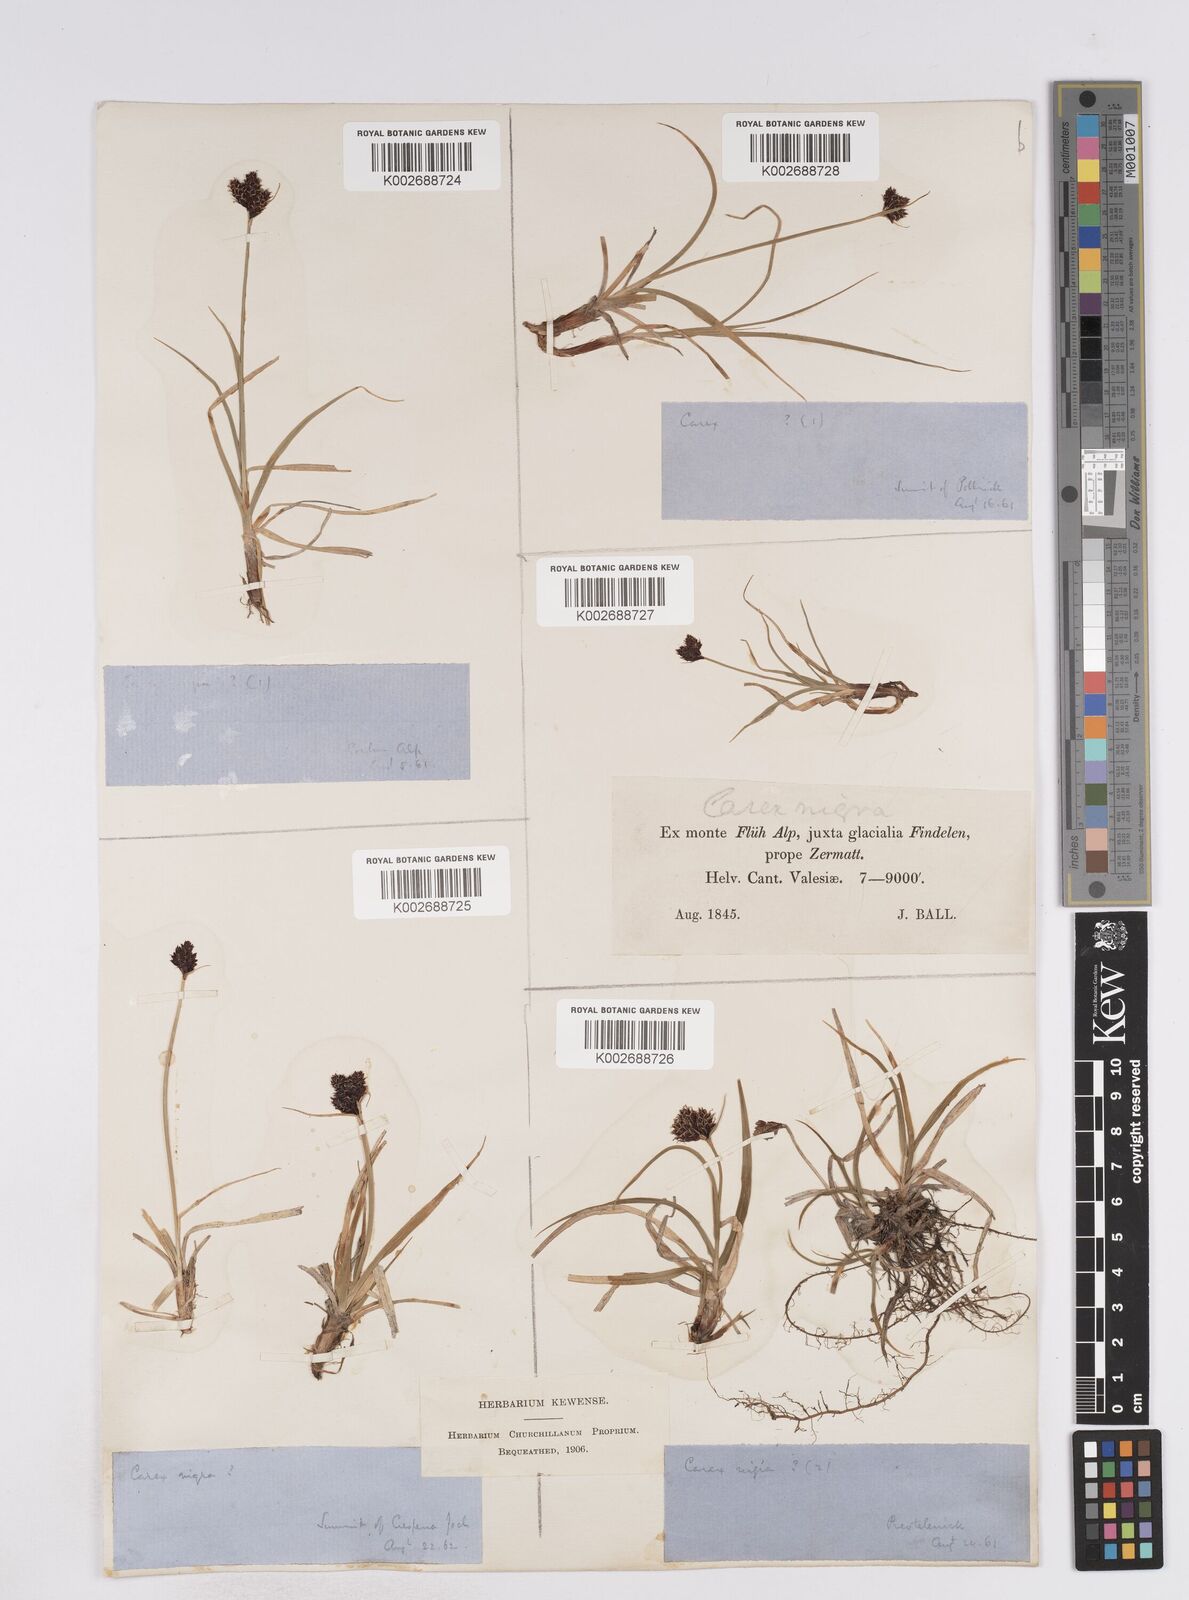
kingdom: Plantae
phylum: Tracheophyta
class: Liliopsida
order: Poales
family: Cyperaceae
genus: Carex
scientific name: Carex parviflora
